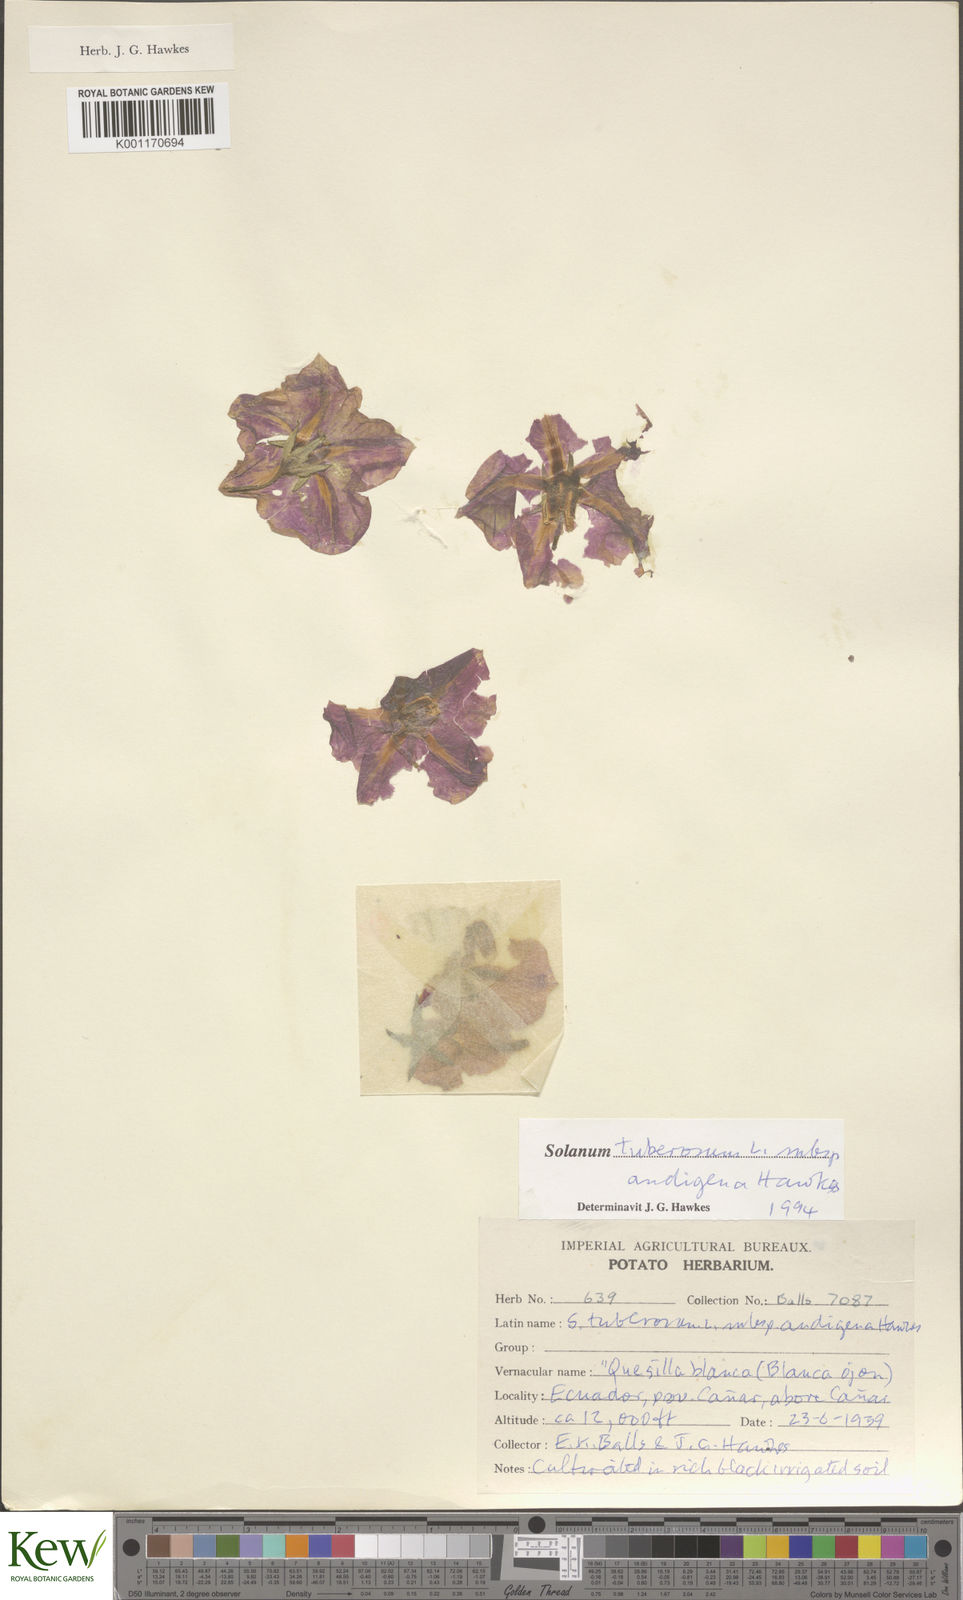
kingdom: Plantae
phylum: Tracheophyta
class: Magnoliopsida
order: Solanales
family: Solanaceae
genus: Solanum
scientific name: Solanum tuberosum
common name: Potato
